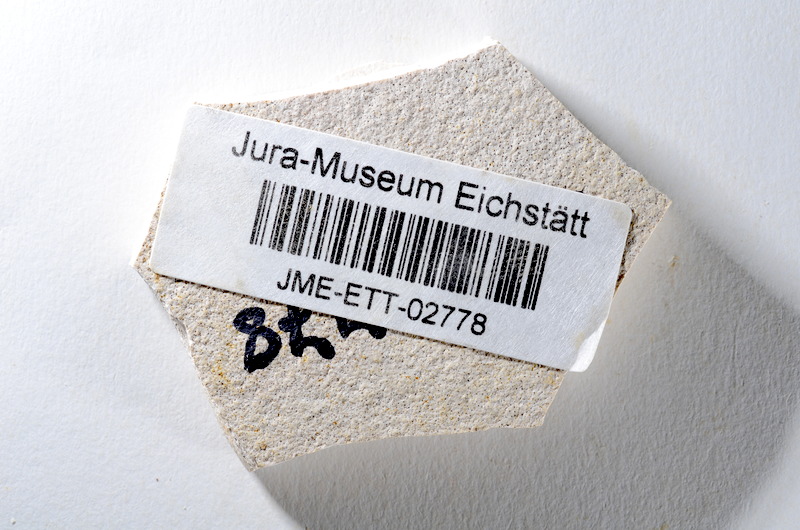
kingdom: Animalia
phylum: Chordata
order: Salmoniformes
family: Orthogonikleithridae
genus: Orthogonikleithrus
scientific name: Orthogonikleithrus hoelli
